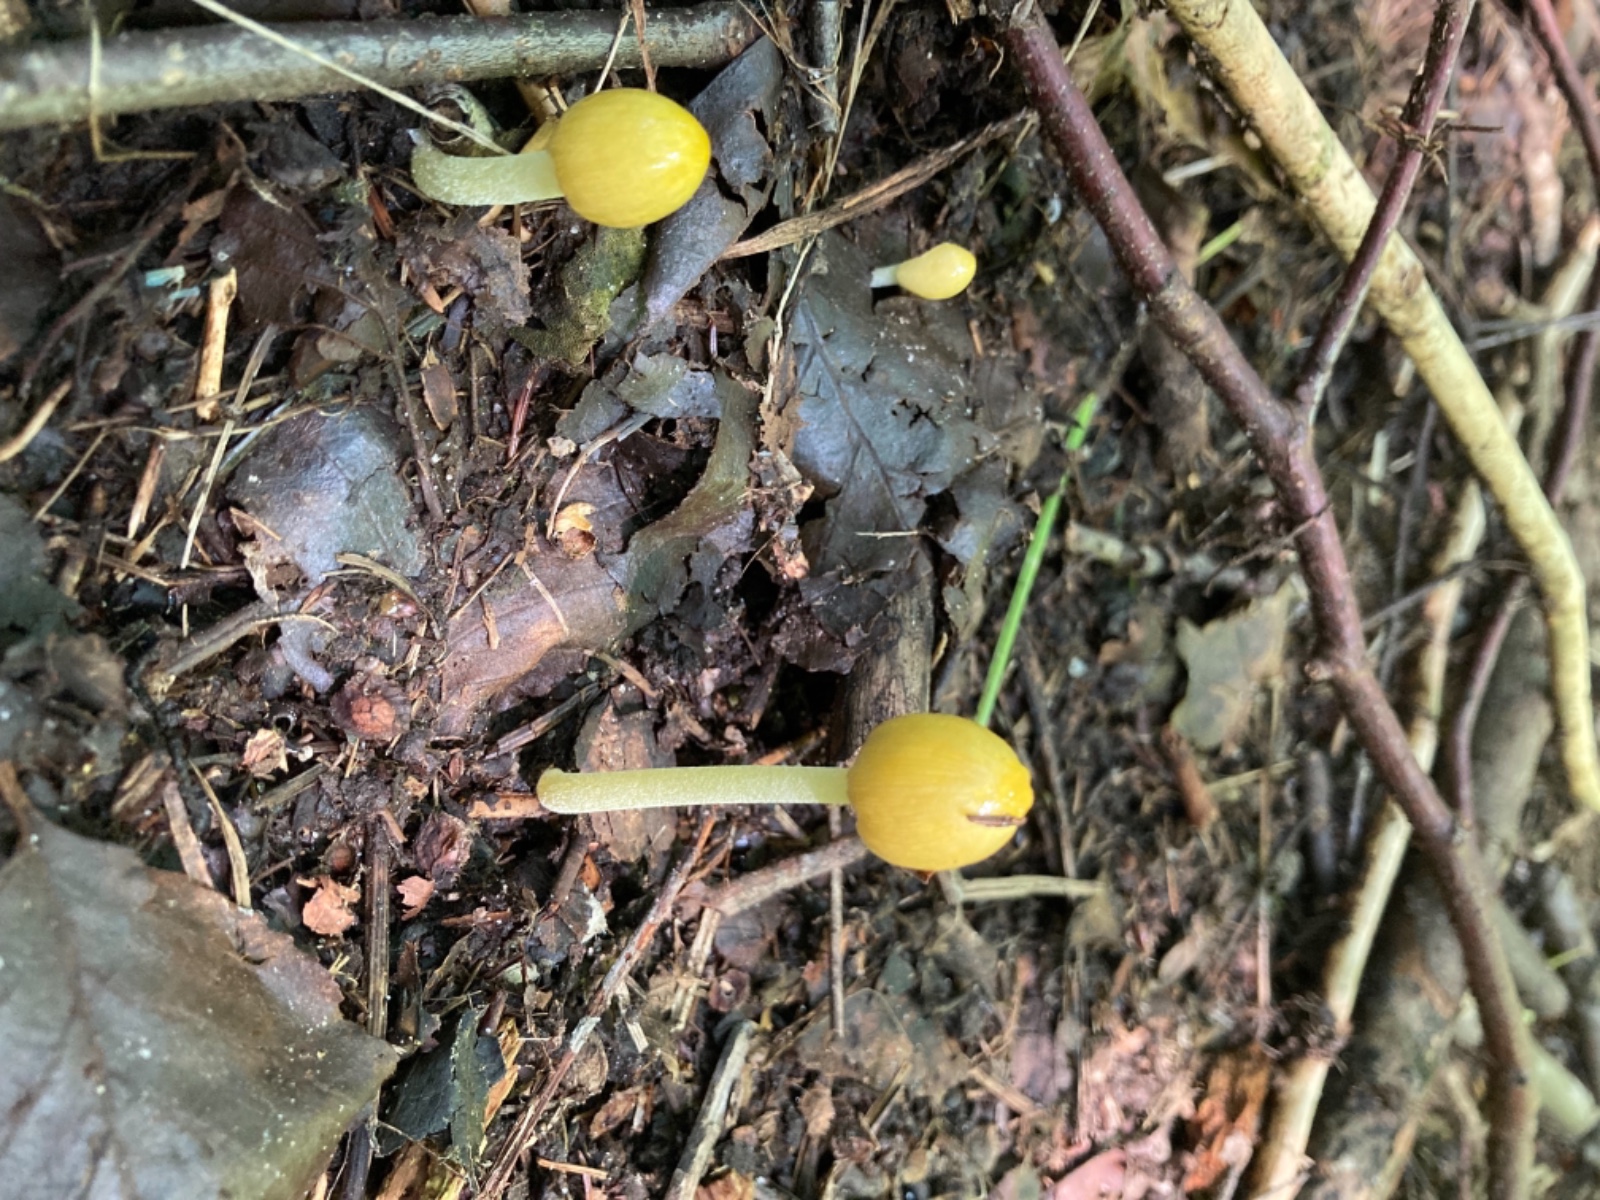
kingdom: Fungi
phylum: Basidiomycota
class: Agaricomycetes
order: Agaricales
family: Bolbitiaceae
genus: Bolbitius
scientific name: Bolbitius titubans
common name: almindelig gulhat
